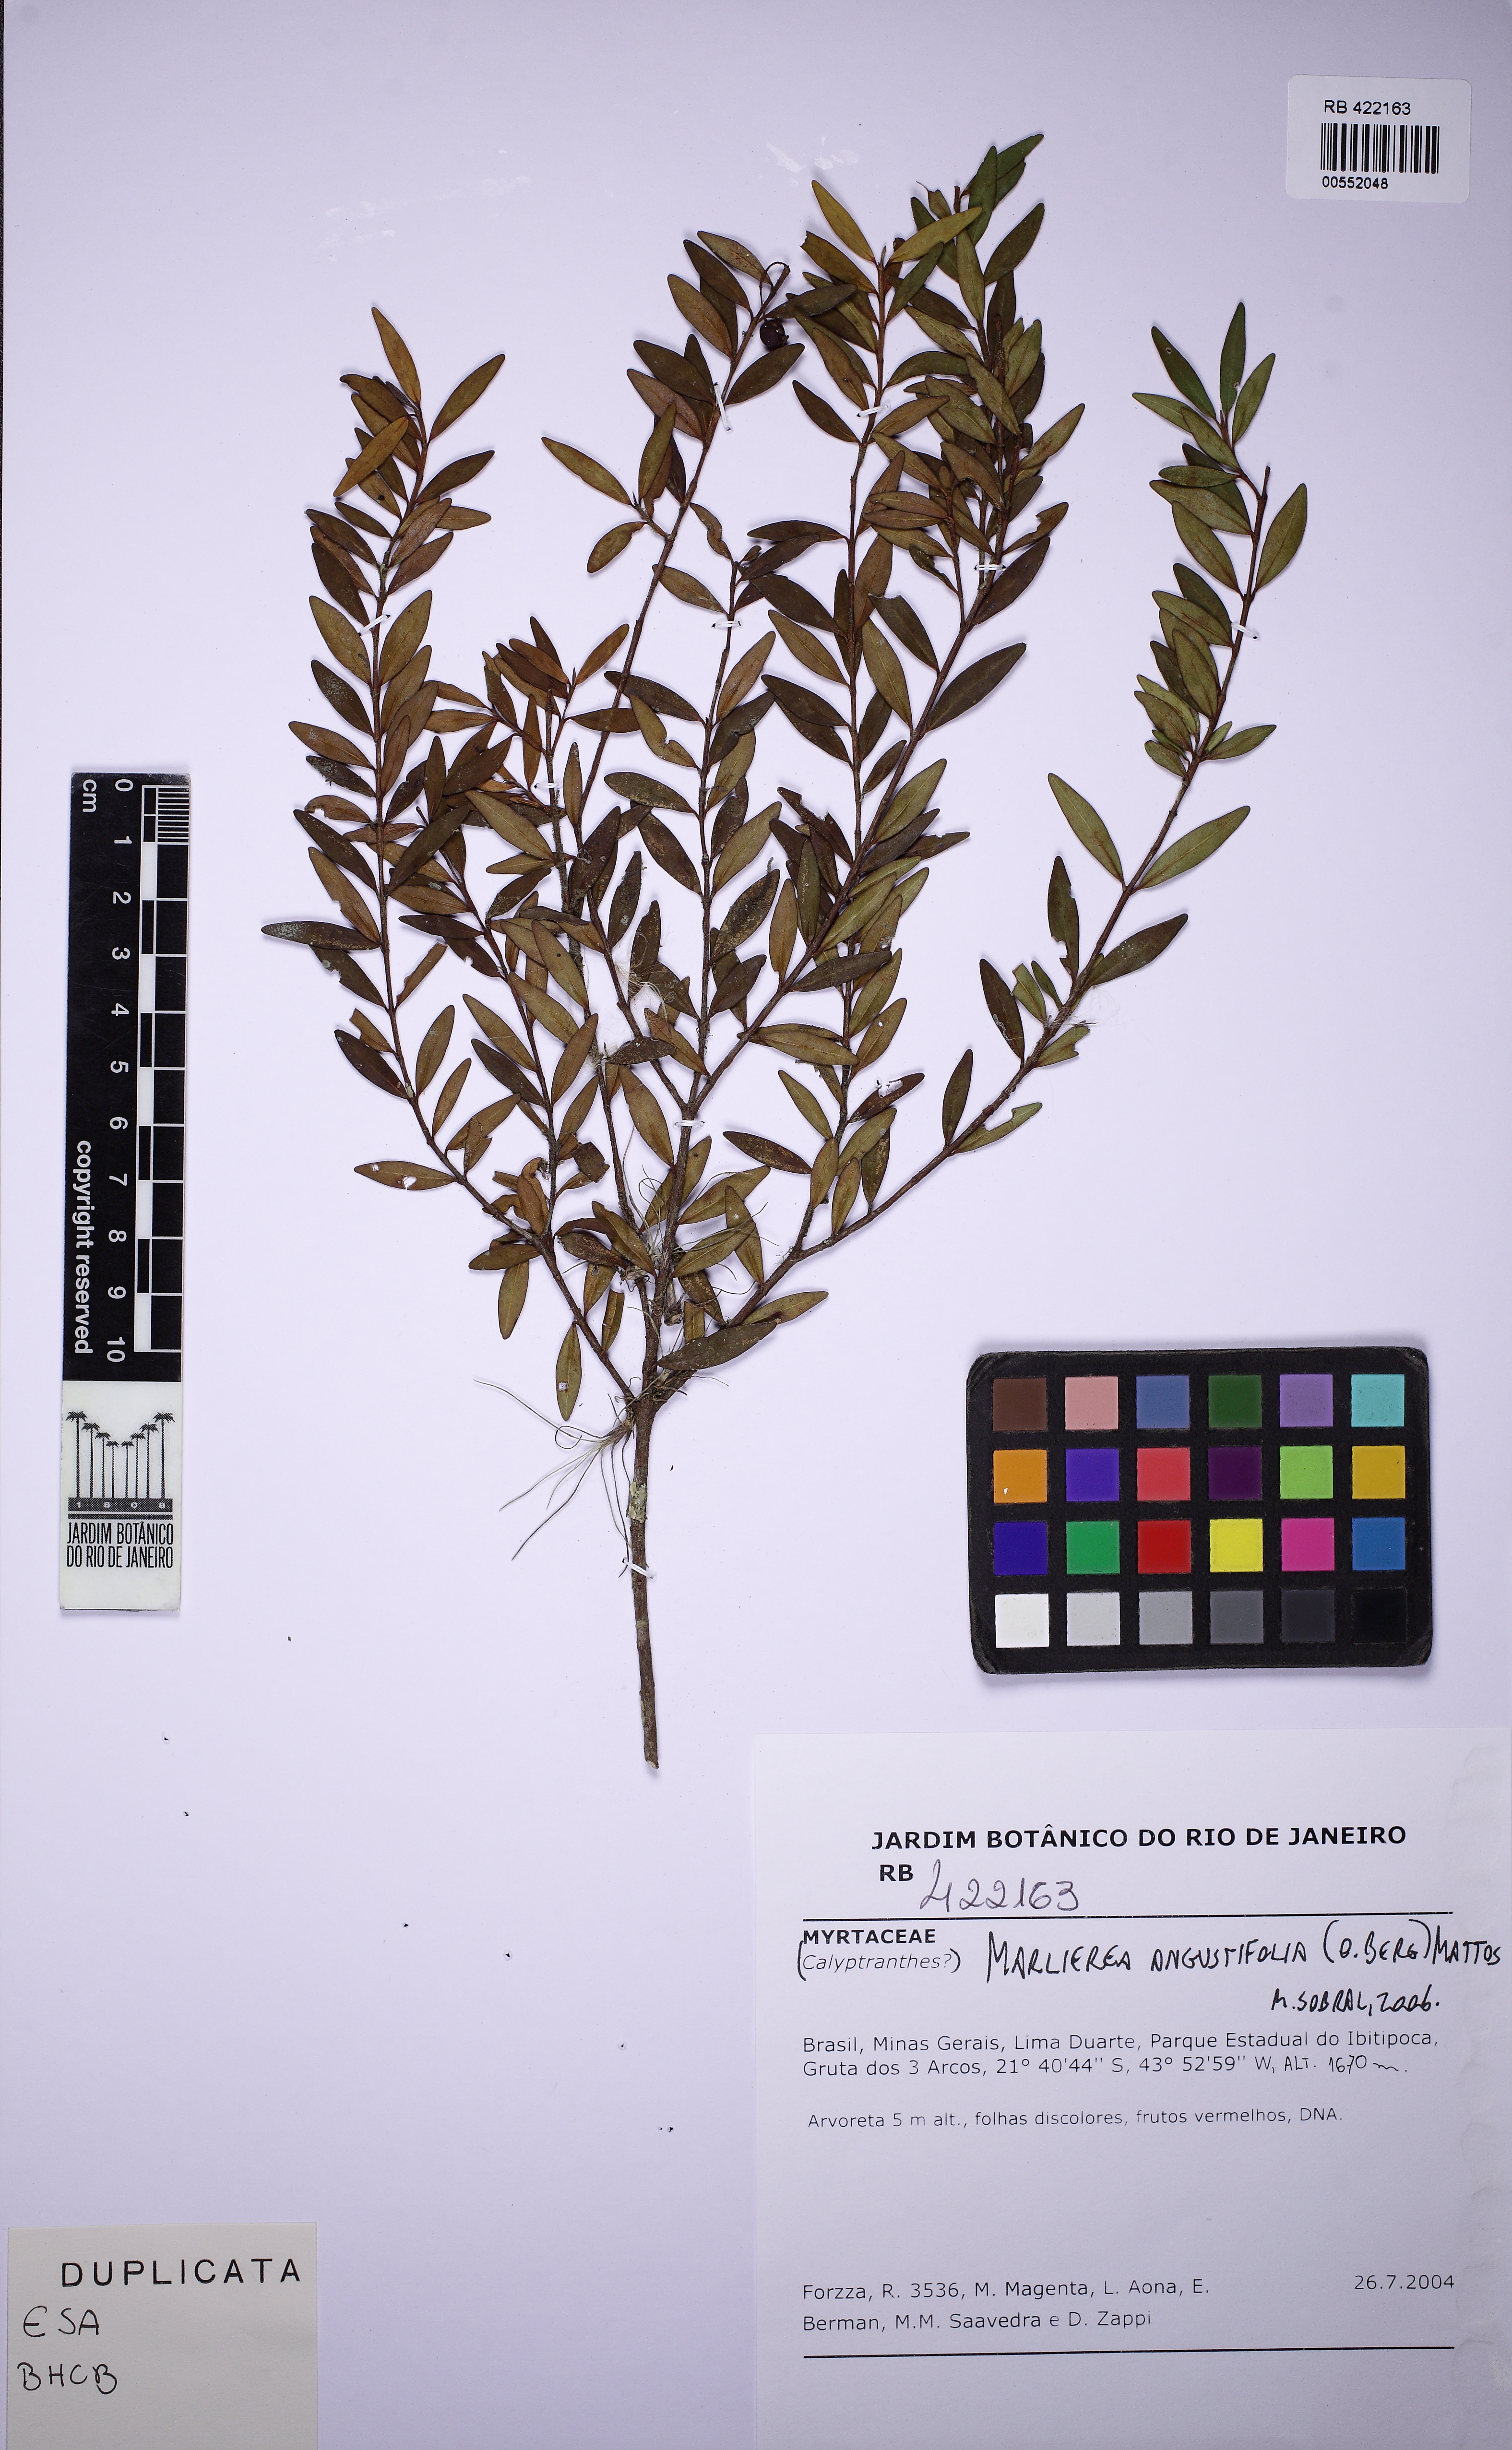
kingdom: Plantae
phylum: Tracheophyta
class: Magnoliopsida
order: Myrtales
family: Myrtaceae
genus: Myrcia
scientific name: Myrcia lenheirensis
